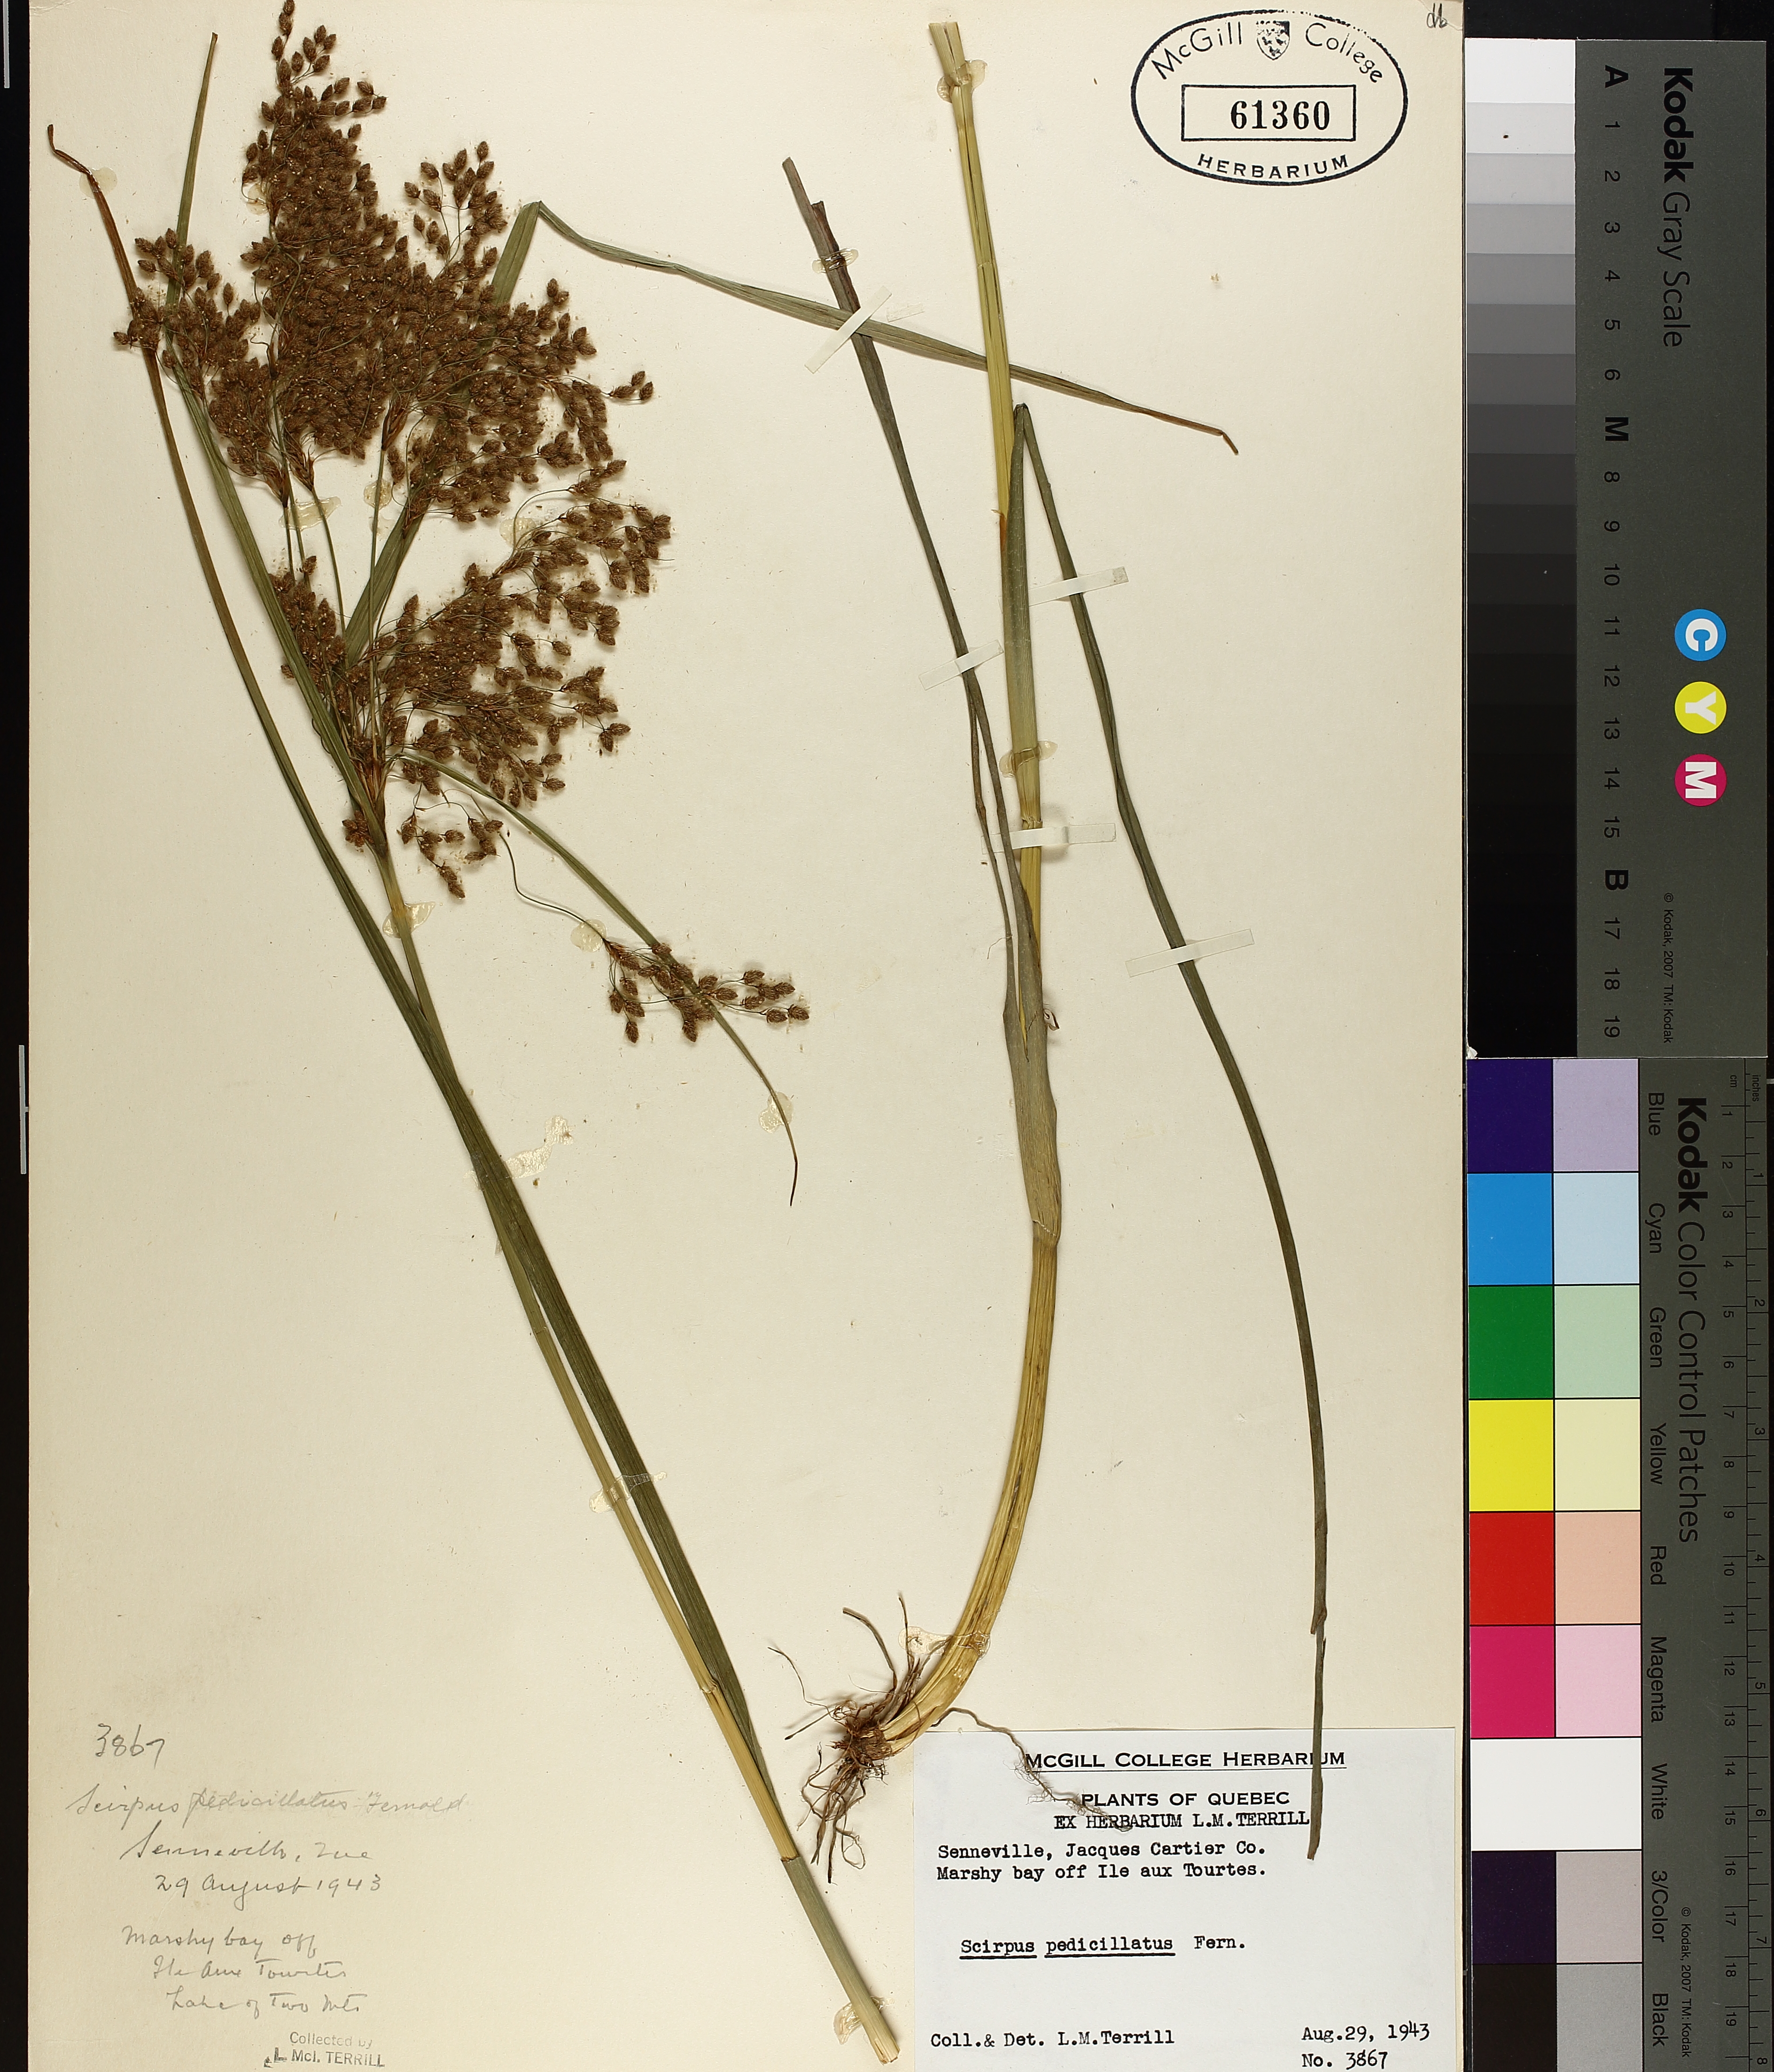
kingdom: Plantae
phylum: Tracheophyta
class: Liliopsida
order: Poales
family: Cyperaceae
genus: Scirpus
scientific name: Scirpus pedicellatus
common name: Pedicelled bulrush
